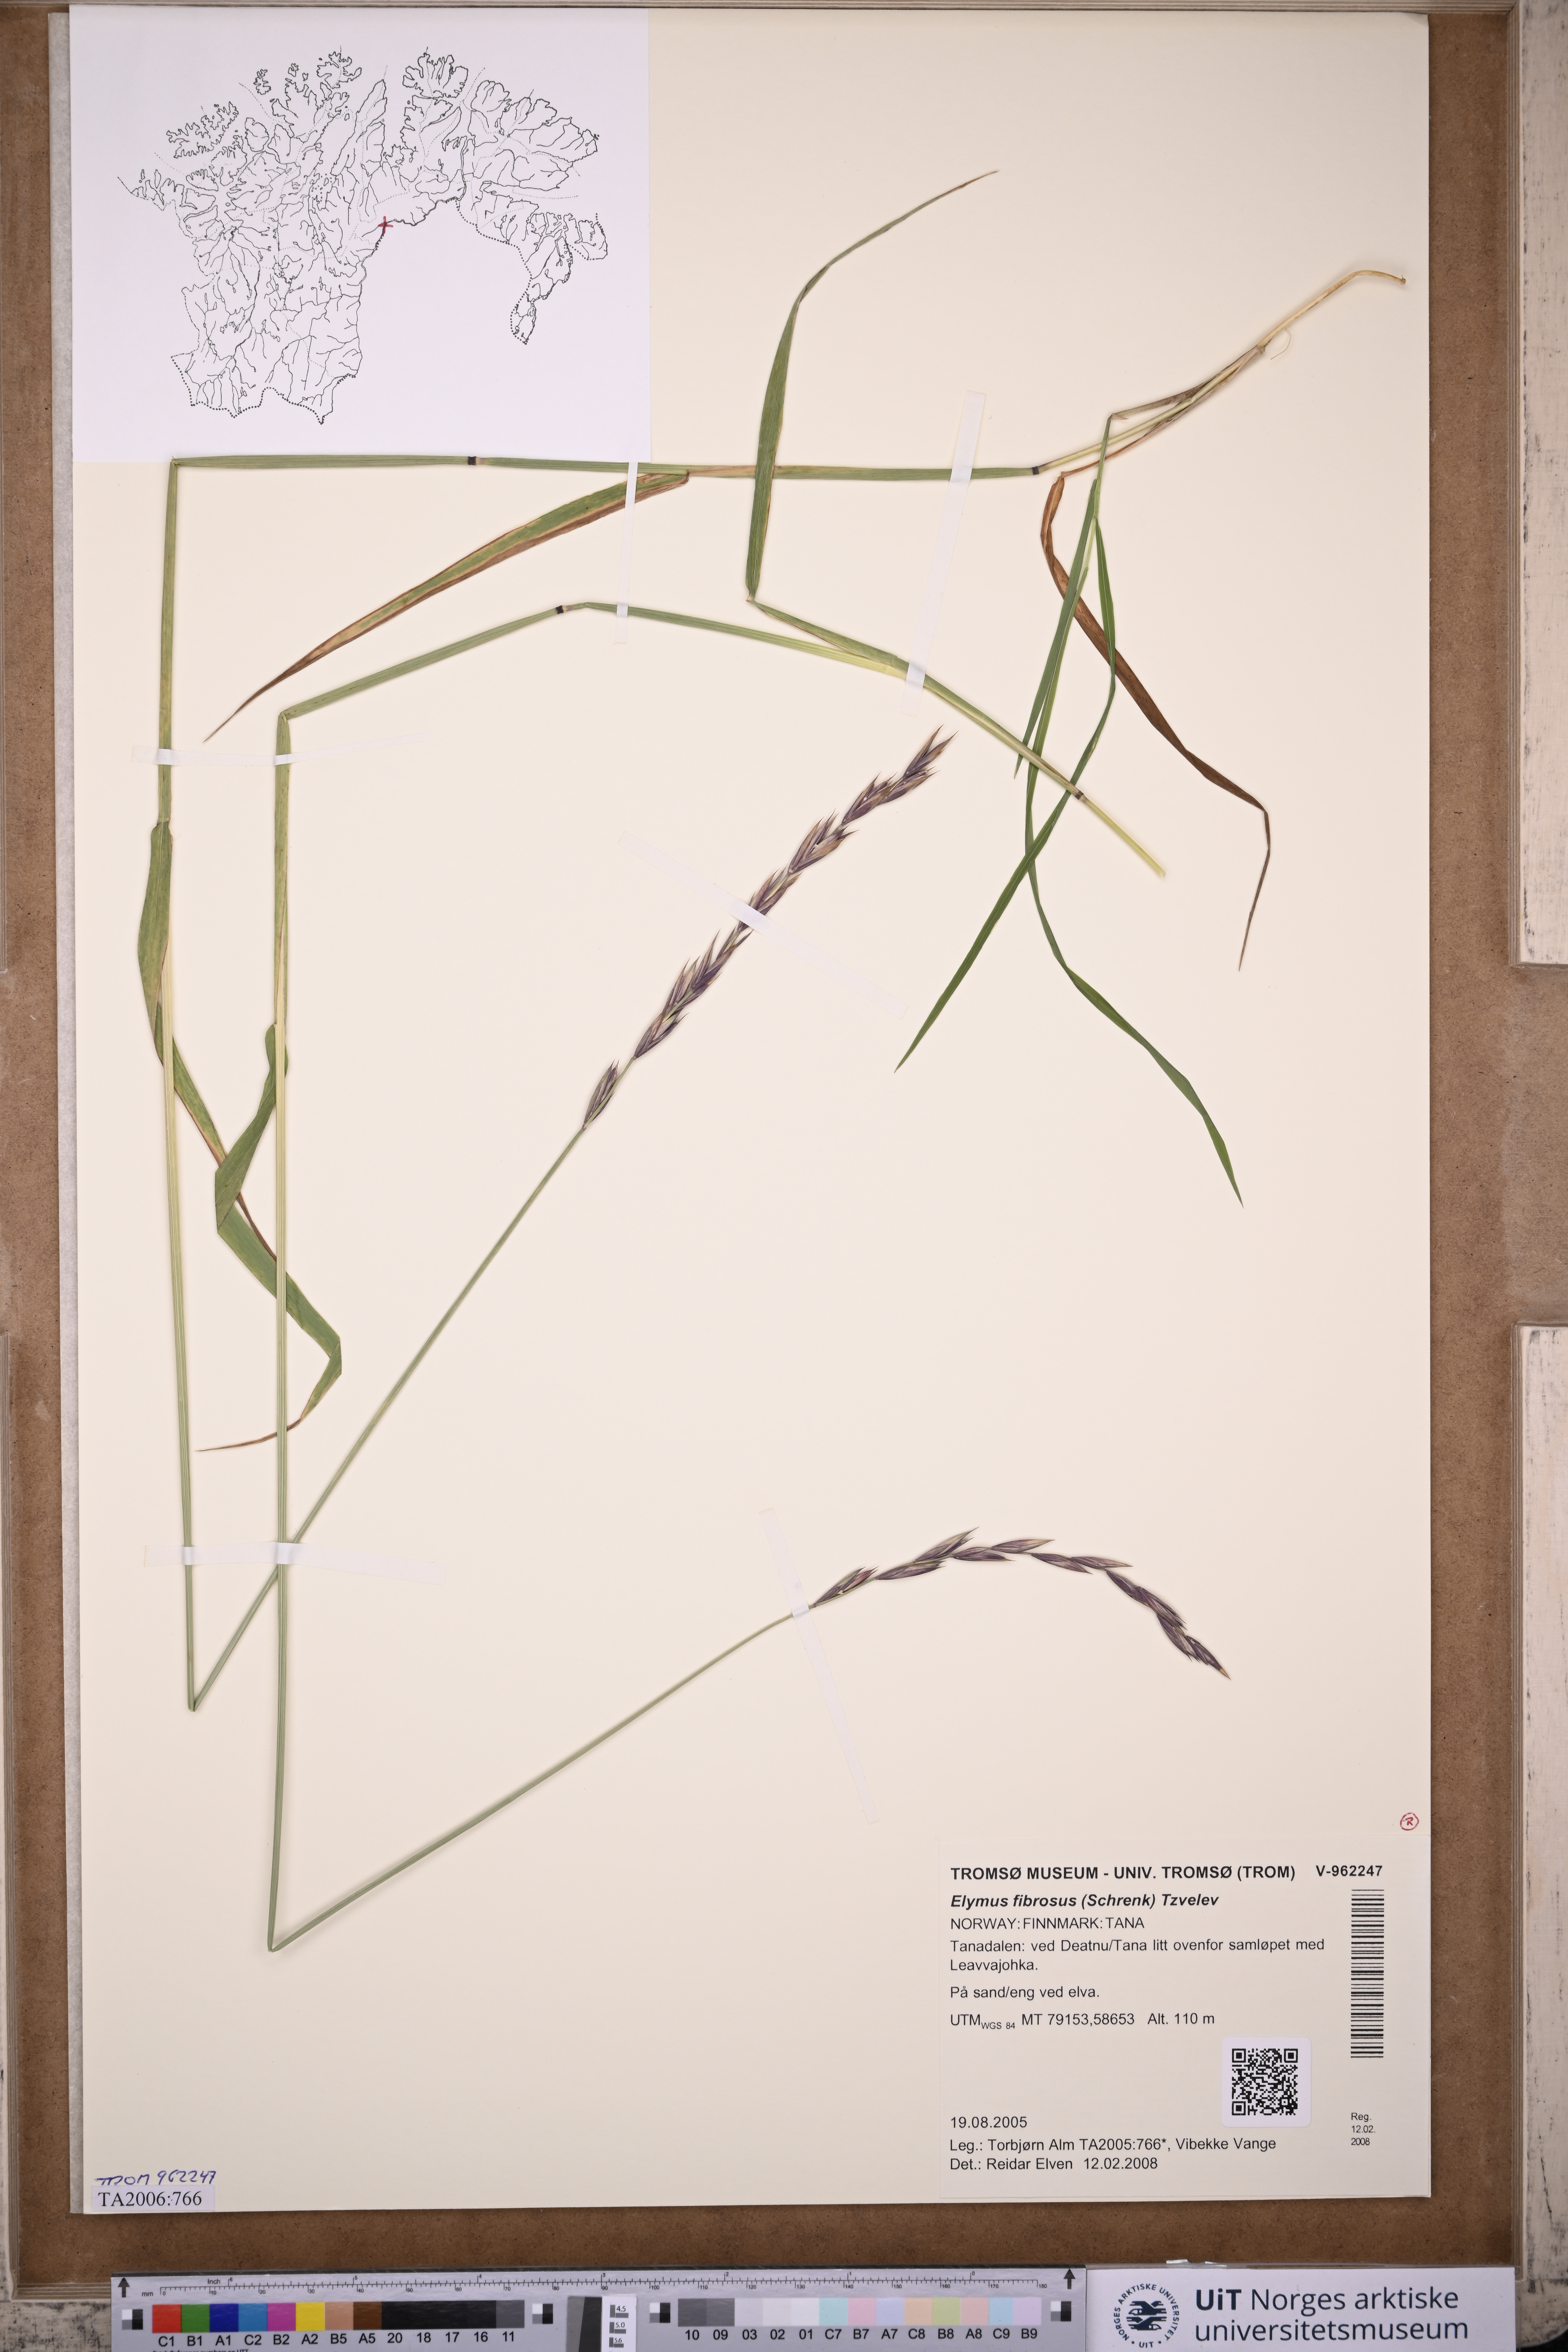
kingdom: Plantae
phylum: Tracheophyta
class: Liliopsida
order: Poales
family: Poaceae
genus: Elymus
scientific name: Elymus fibrosus
